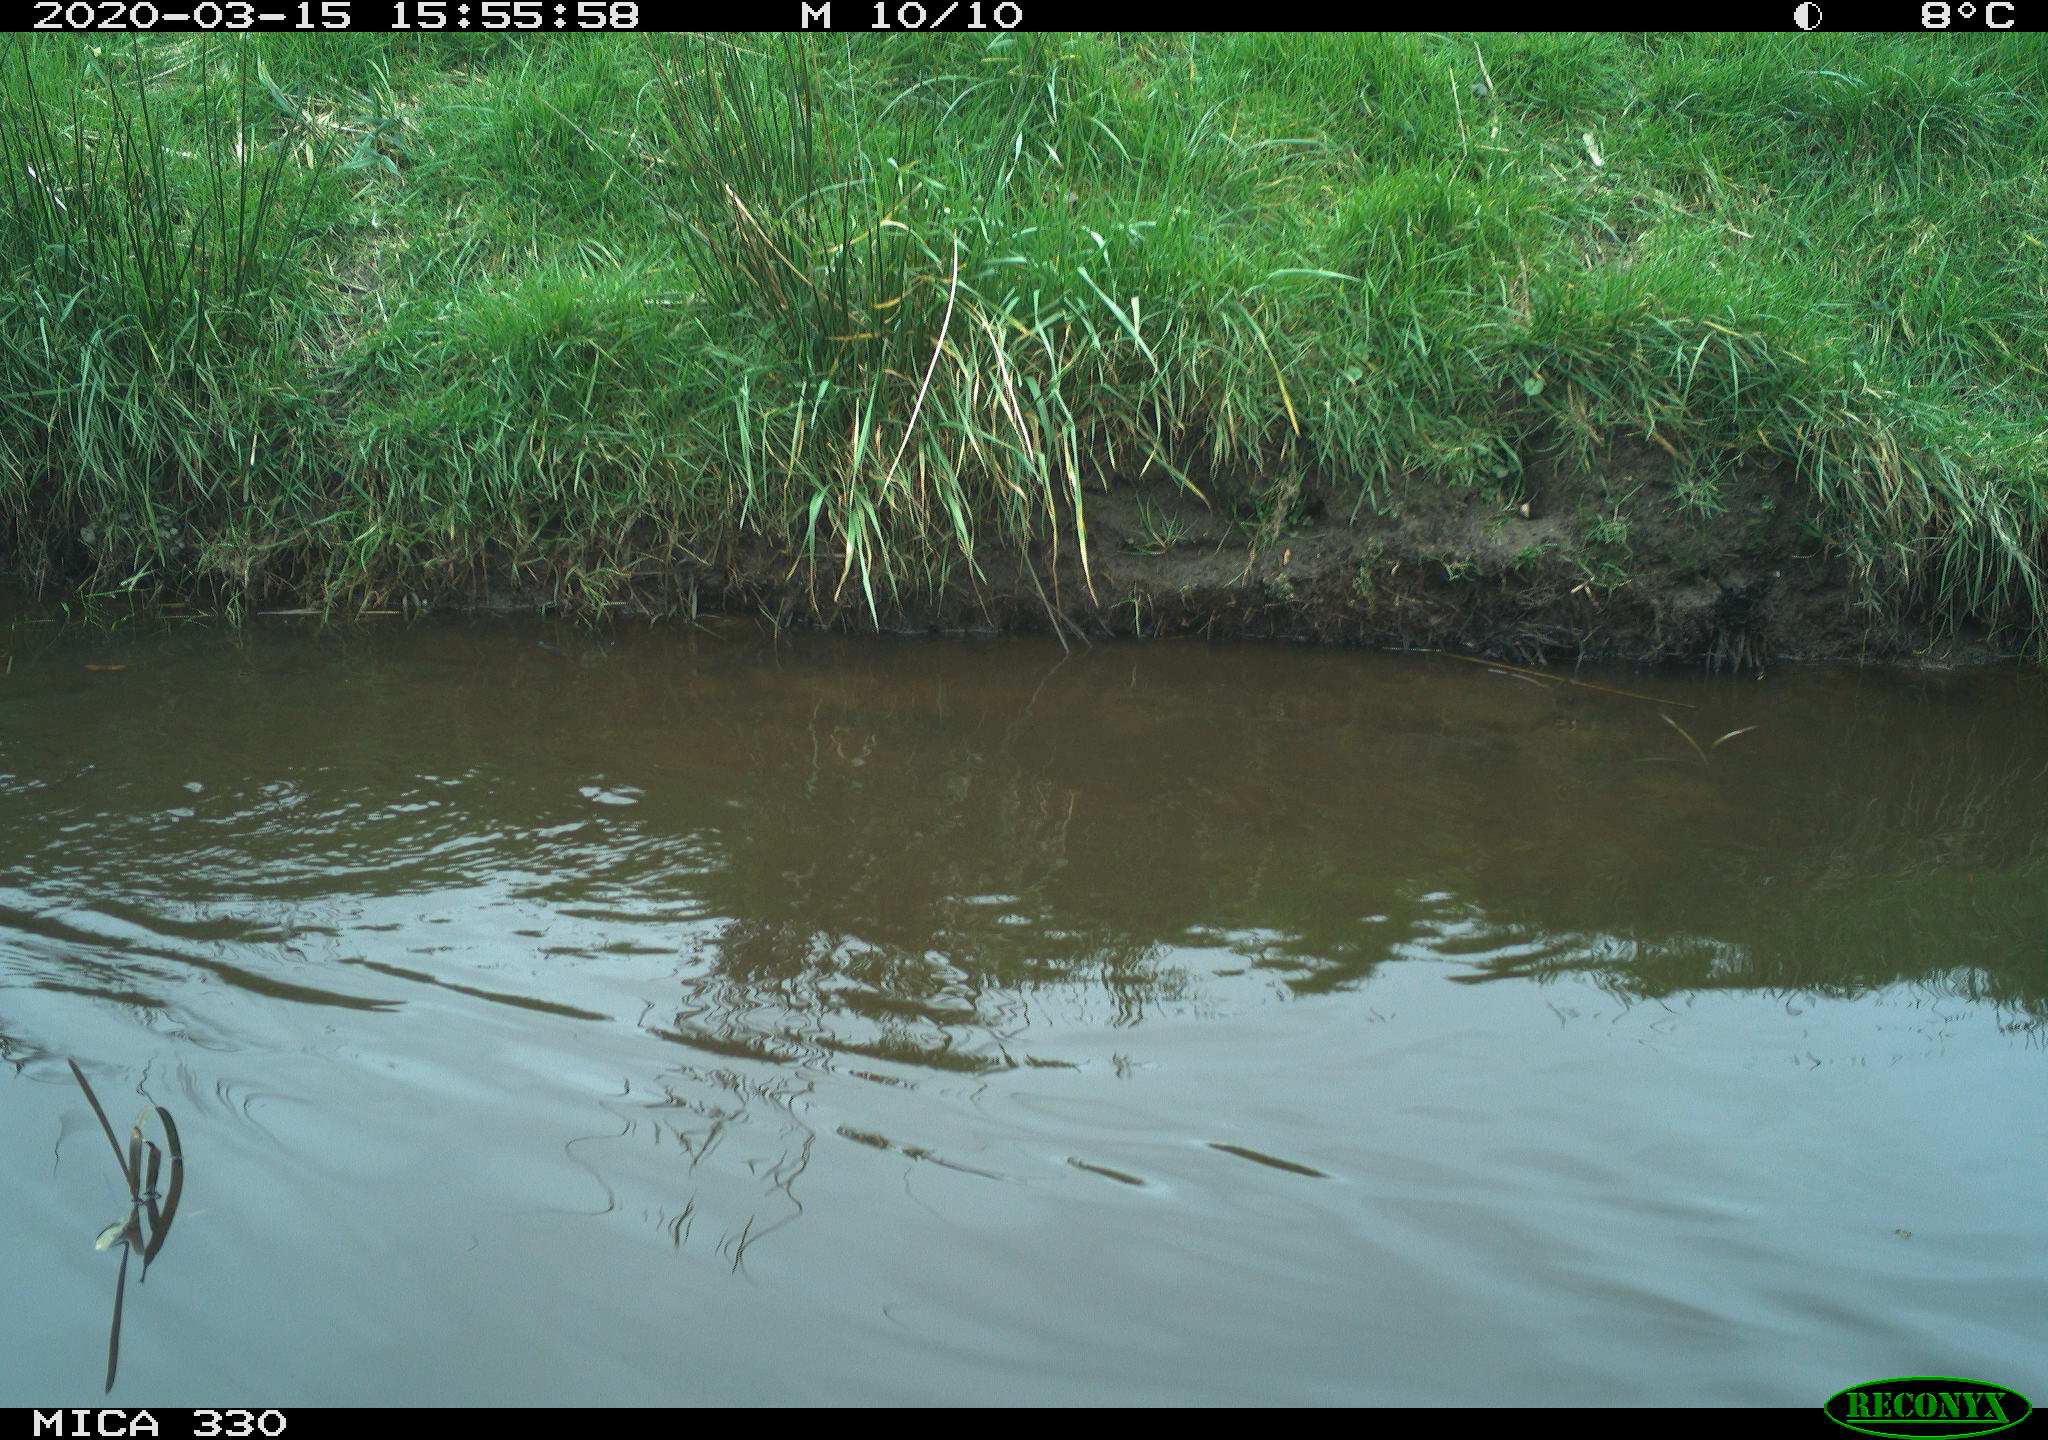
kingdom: Animalia
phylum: Chordata
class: Aves
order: Anseriformes
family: Anatidae
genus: Anas
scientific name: Anas platyrhynchos
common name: Mallard
